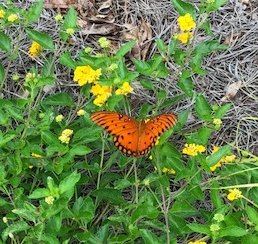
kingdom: Animalia
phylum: Arthropoda
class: Insecta
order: Lepidoptera
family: Nymphalidae
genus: Dione
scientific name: Dione vanillae
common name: Gulf Fritillary
